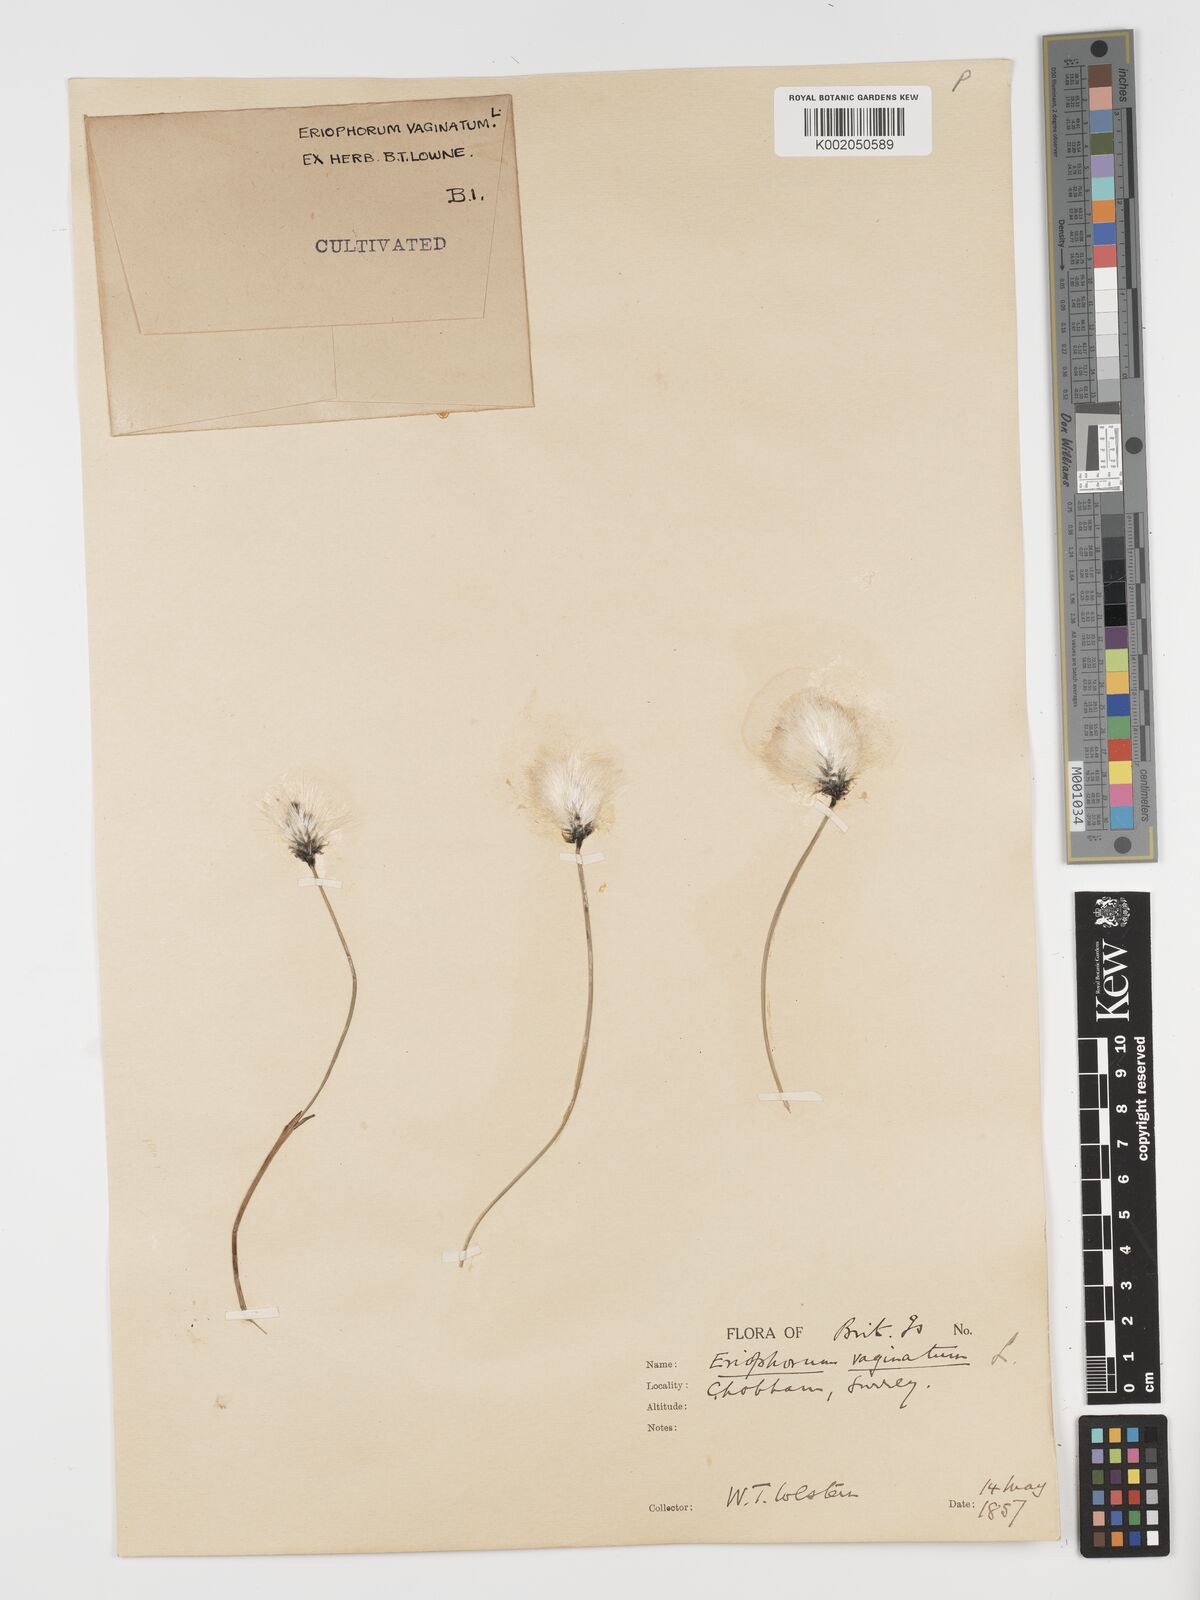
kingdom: Plantae
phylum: Tracheophyta
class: Liliopsida
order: Poales
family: Cyperaceae
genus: Eriophorum
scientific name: Eriophorum vaginatum
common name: Hare's-tail cottongrass
